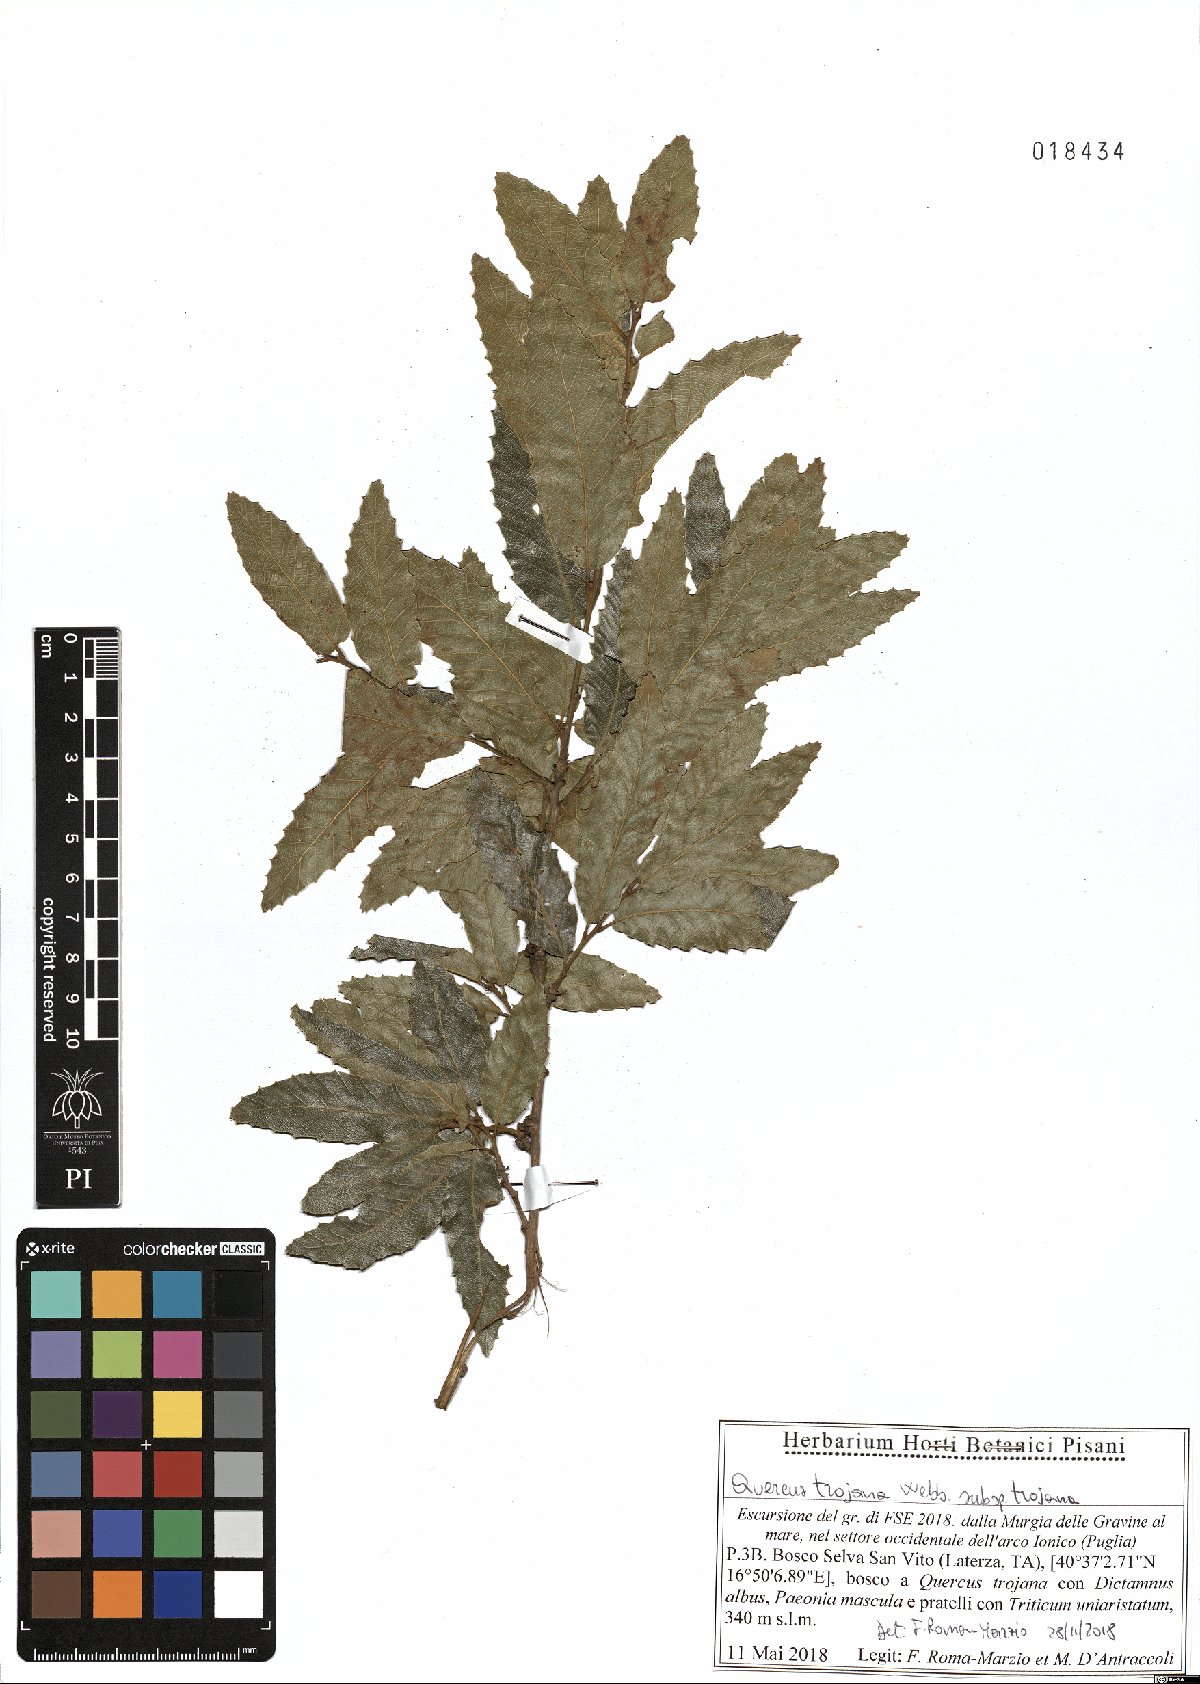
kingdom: Plantae
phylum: Tracheophyta
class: Magnoliopsida
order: Fagales
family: Fagaceae
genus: Quercus
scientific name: Quercus trojana
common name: Macedonian oak
